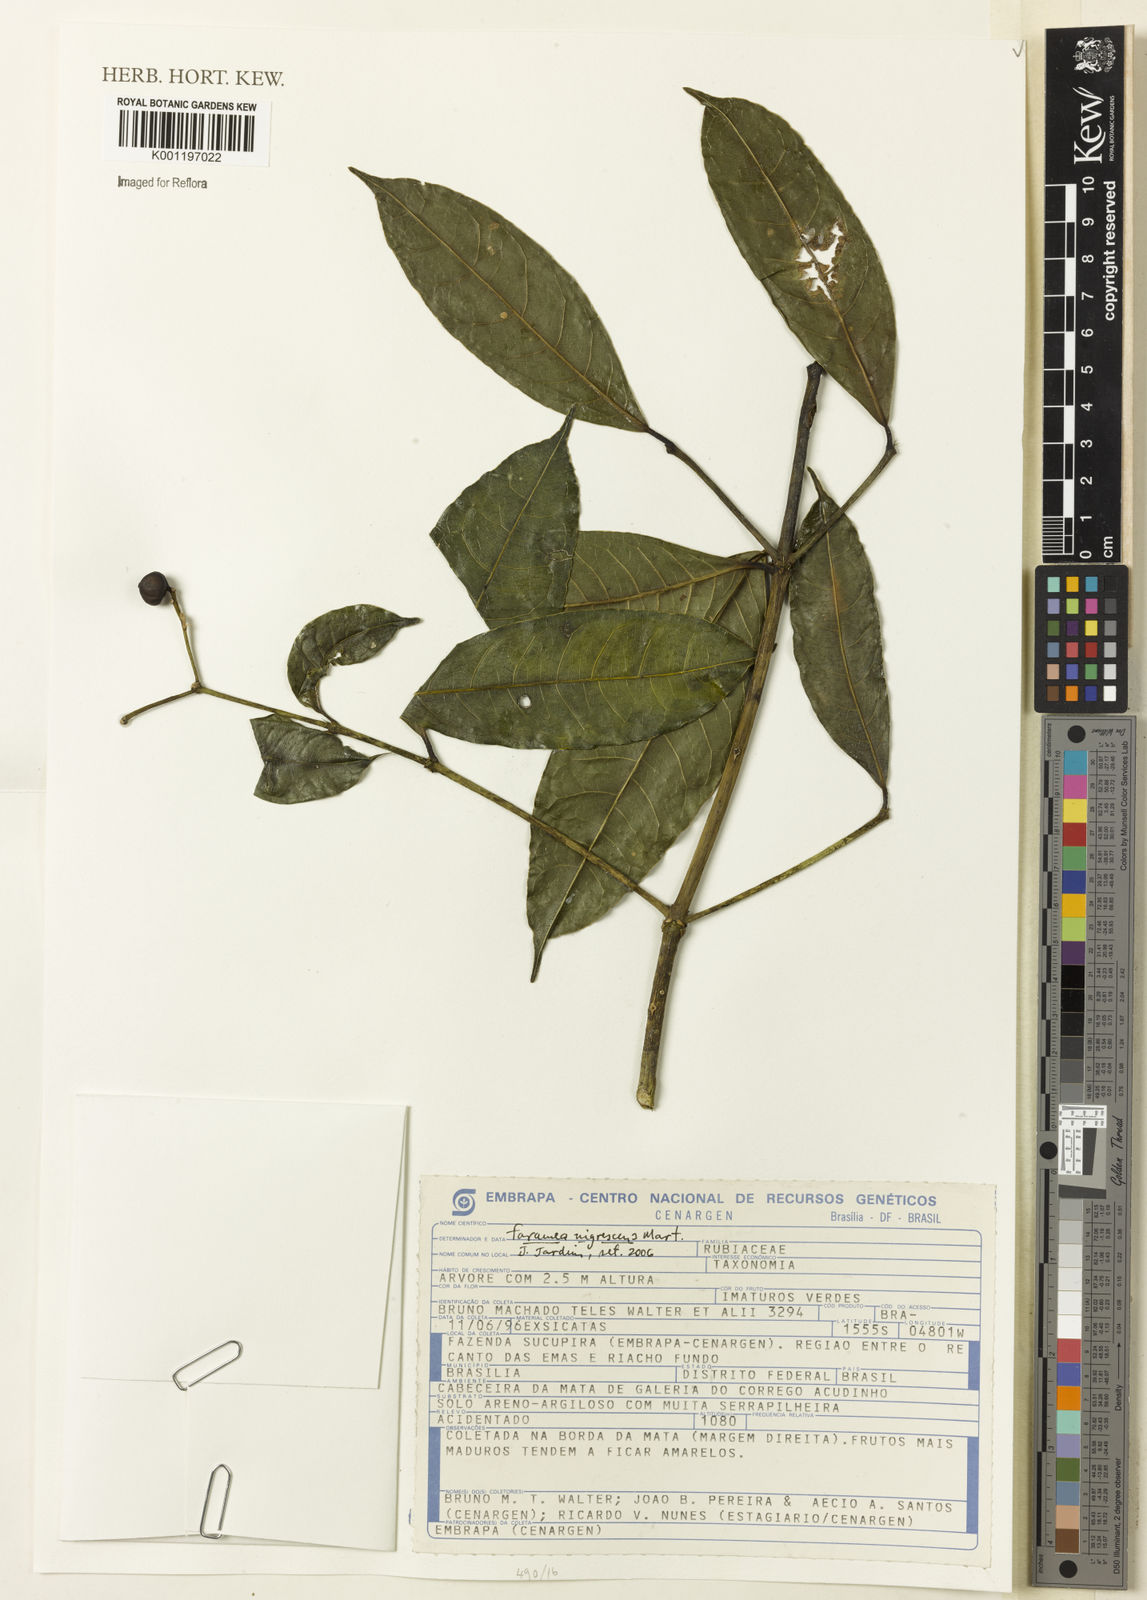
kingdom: Plantae
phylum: Tracheophyta
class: Magnoliopsida
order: Gentianales
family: Rubiaceae
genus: Faramea
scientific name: Faramea nigrescens
